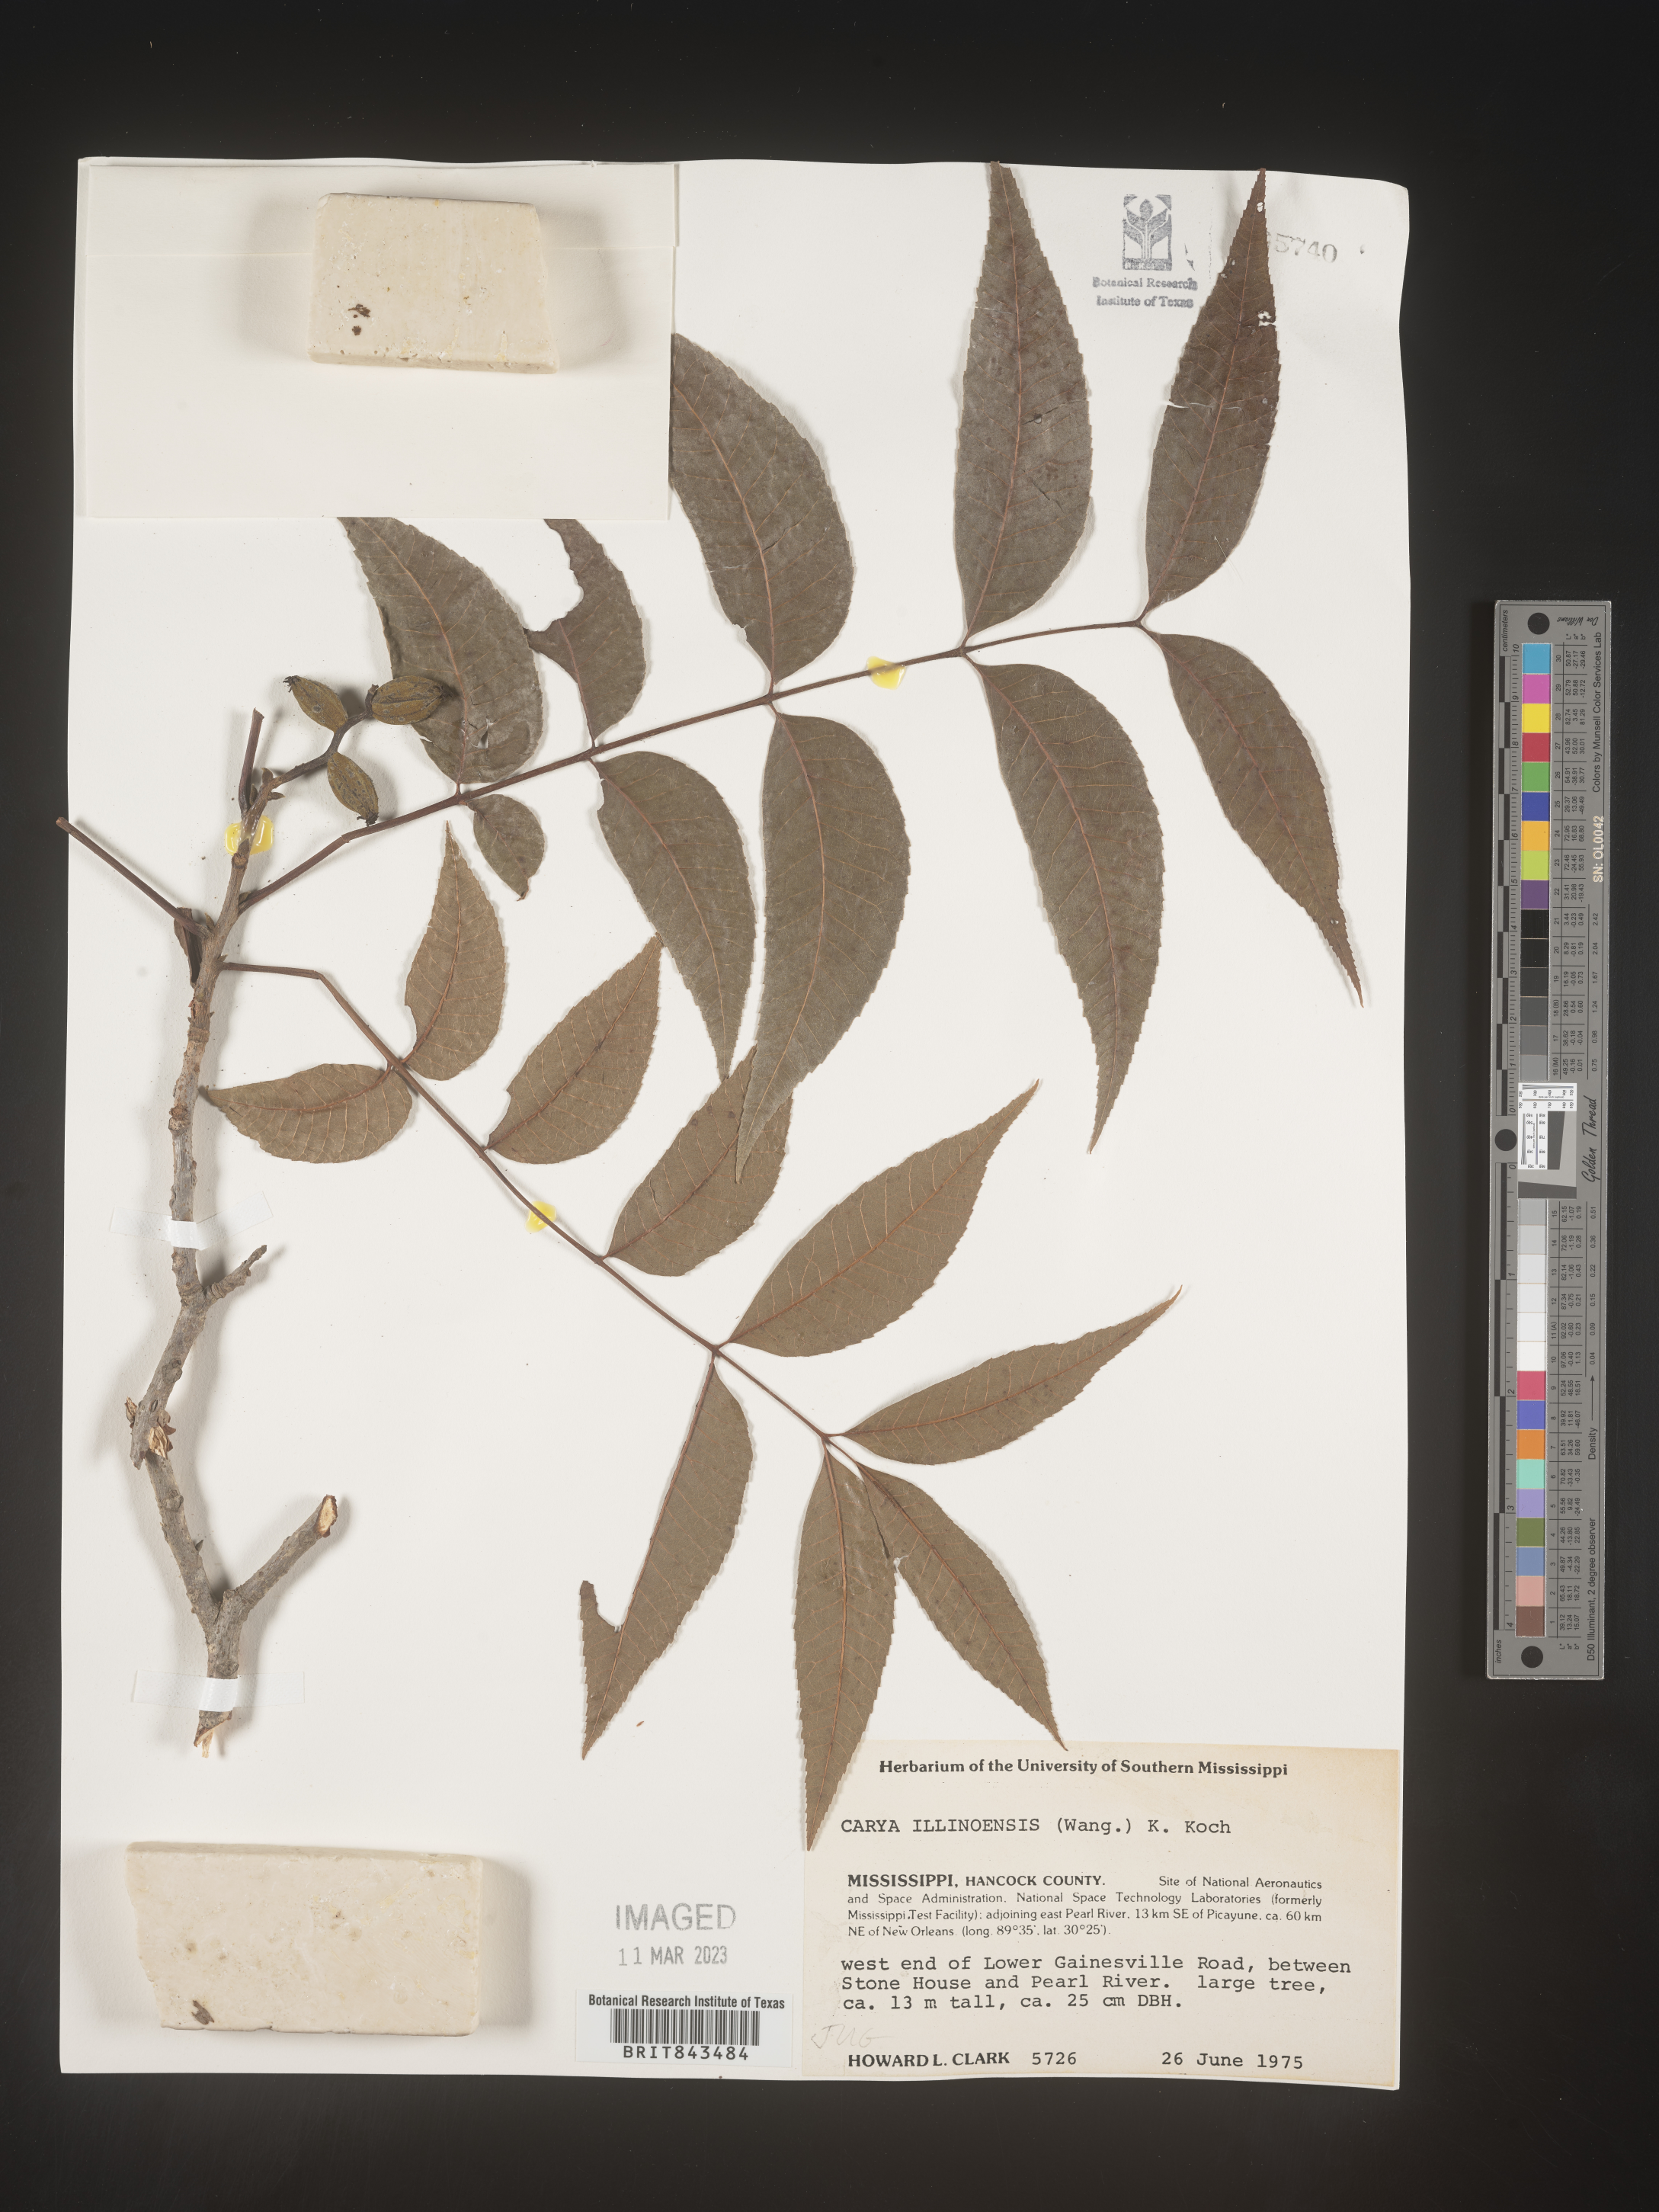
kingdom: Plantae
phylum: Tracheophyta
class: Magnoliopsida
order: Fagales
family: Juglandaceae
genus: Carya
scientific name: Carya illinoinensis
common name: Pecan
